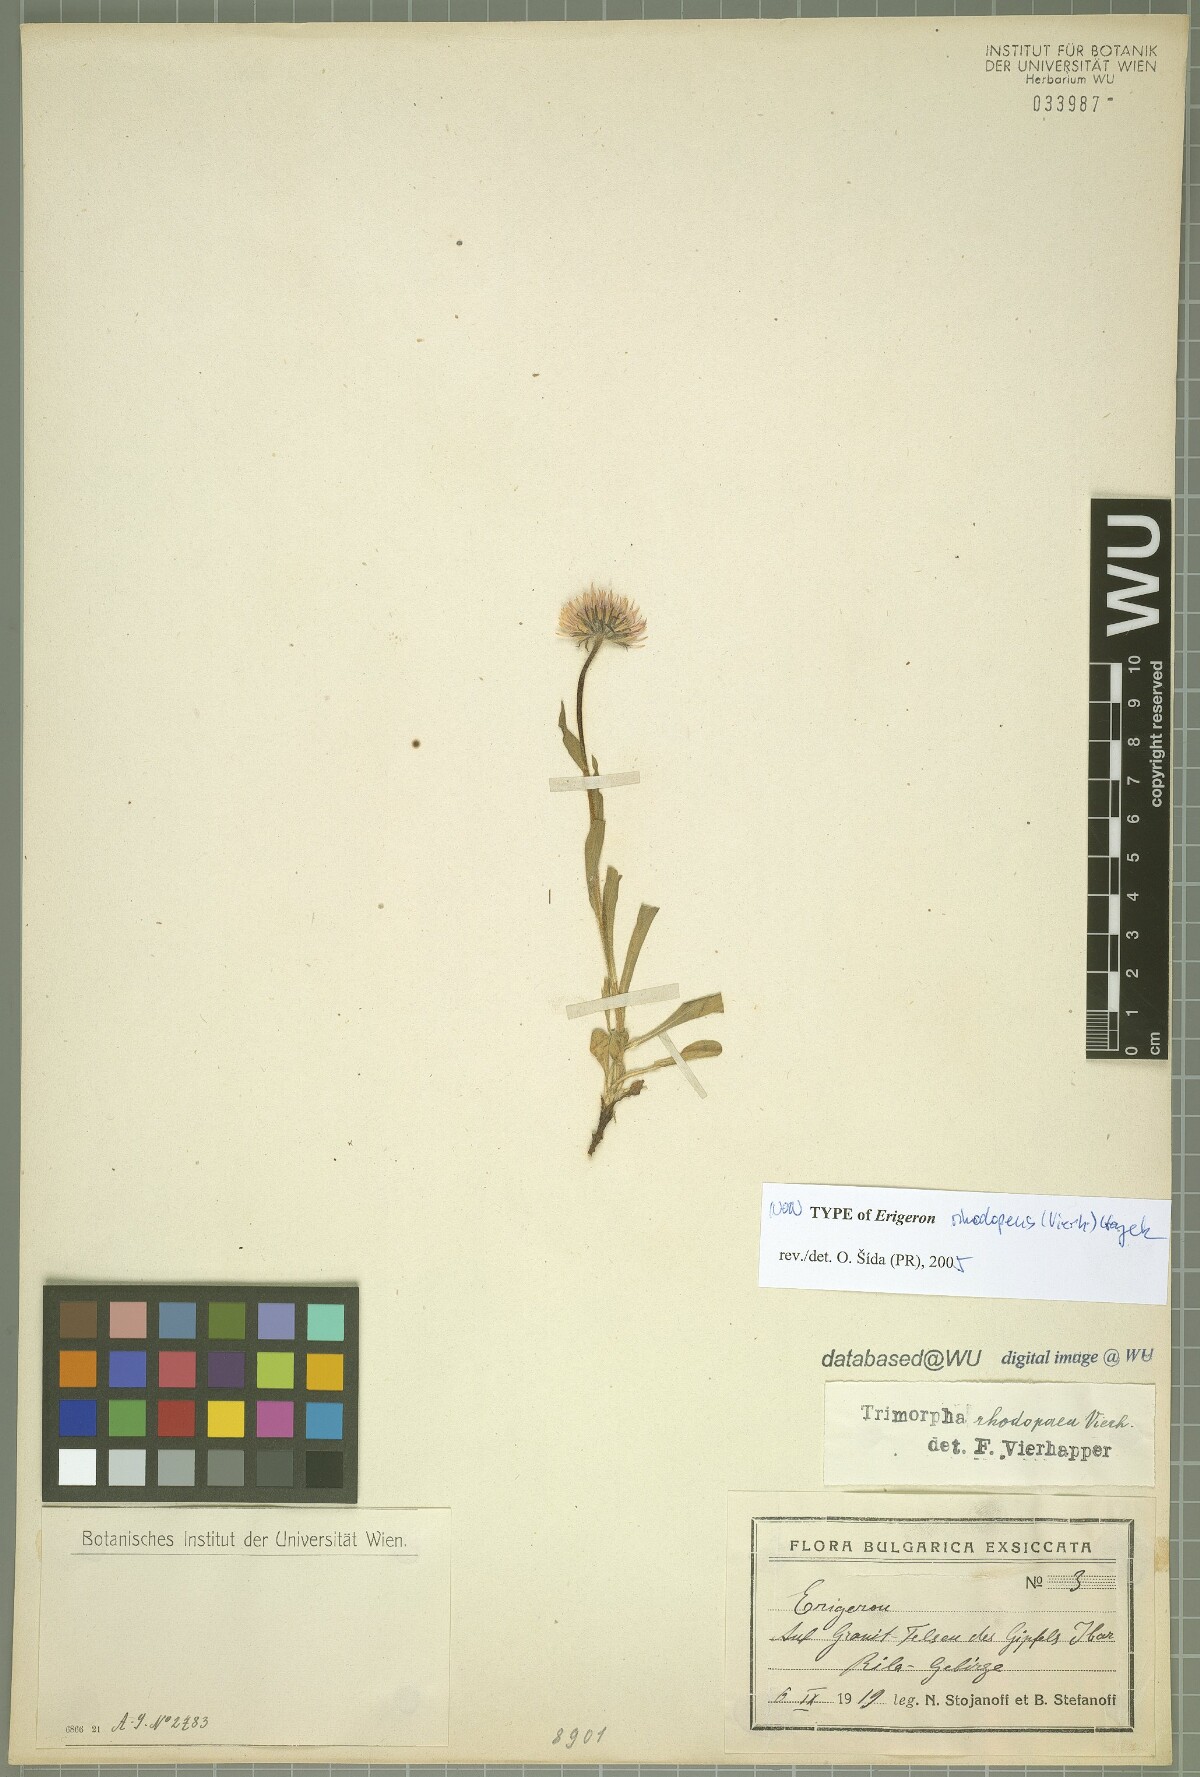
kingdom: Plantae
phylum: Tracheophyta
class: Magnoliopsida
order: Asterales
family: Asteraceae
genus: Erigeron
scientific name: Erigeron alpinus
